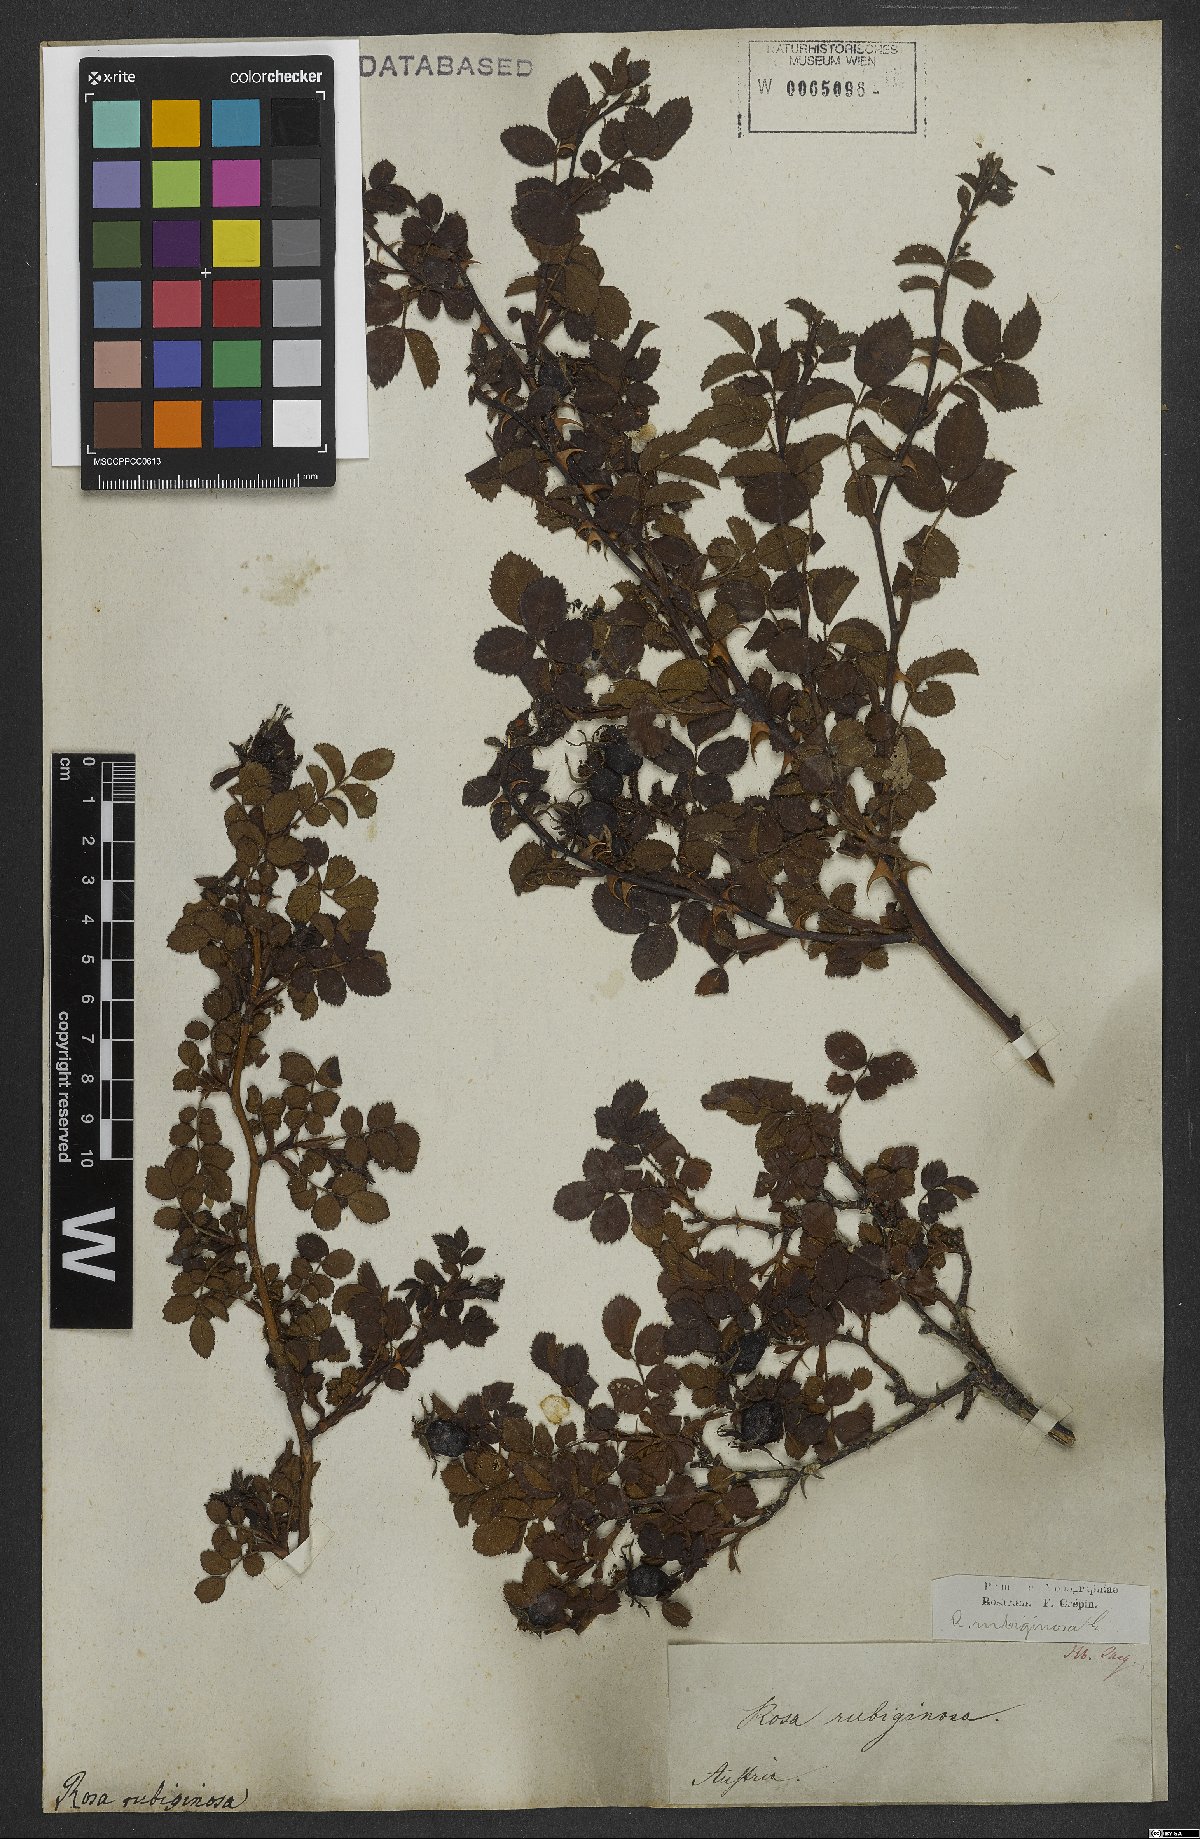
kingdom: Plantae
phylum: Tracheophyta
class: Magnoliopsida
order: Rosales
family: Rosaceae
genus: Rosa
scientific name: Rosa rubiginosa
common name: Sweet-briar
